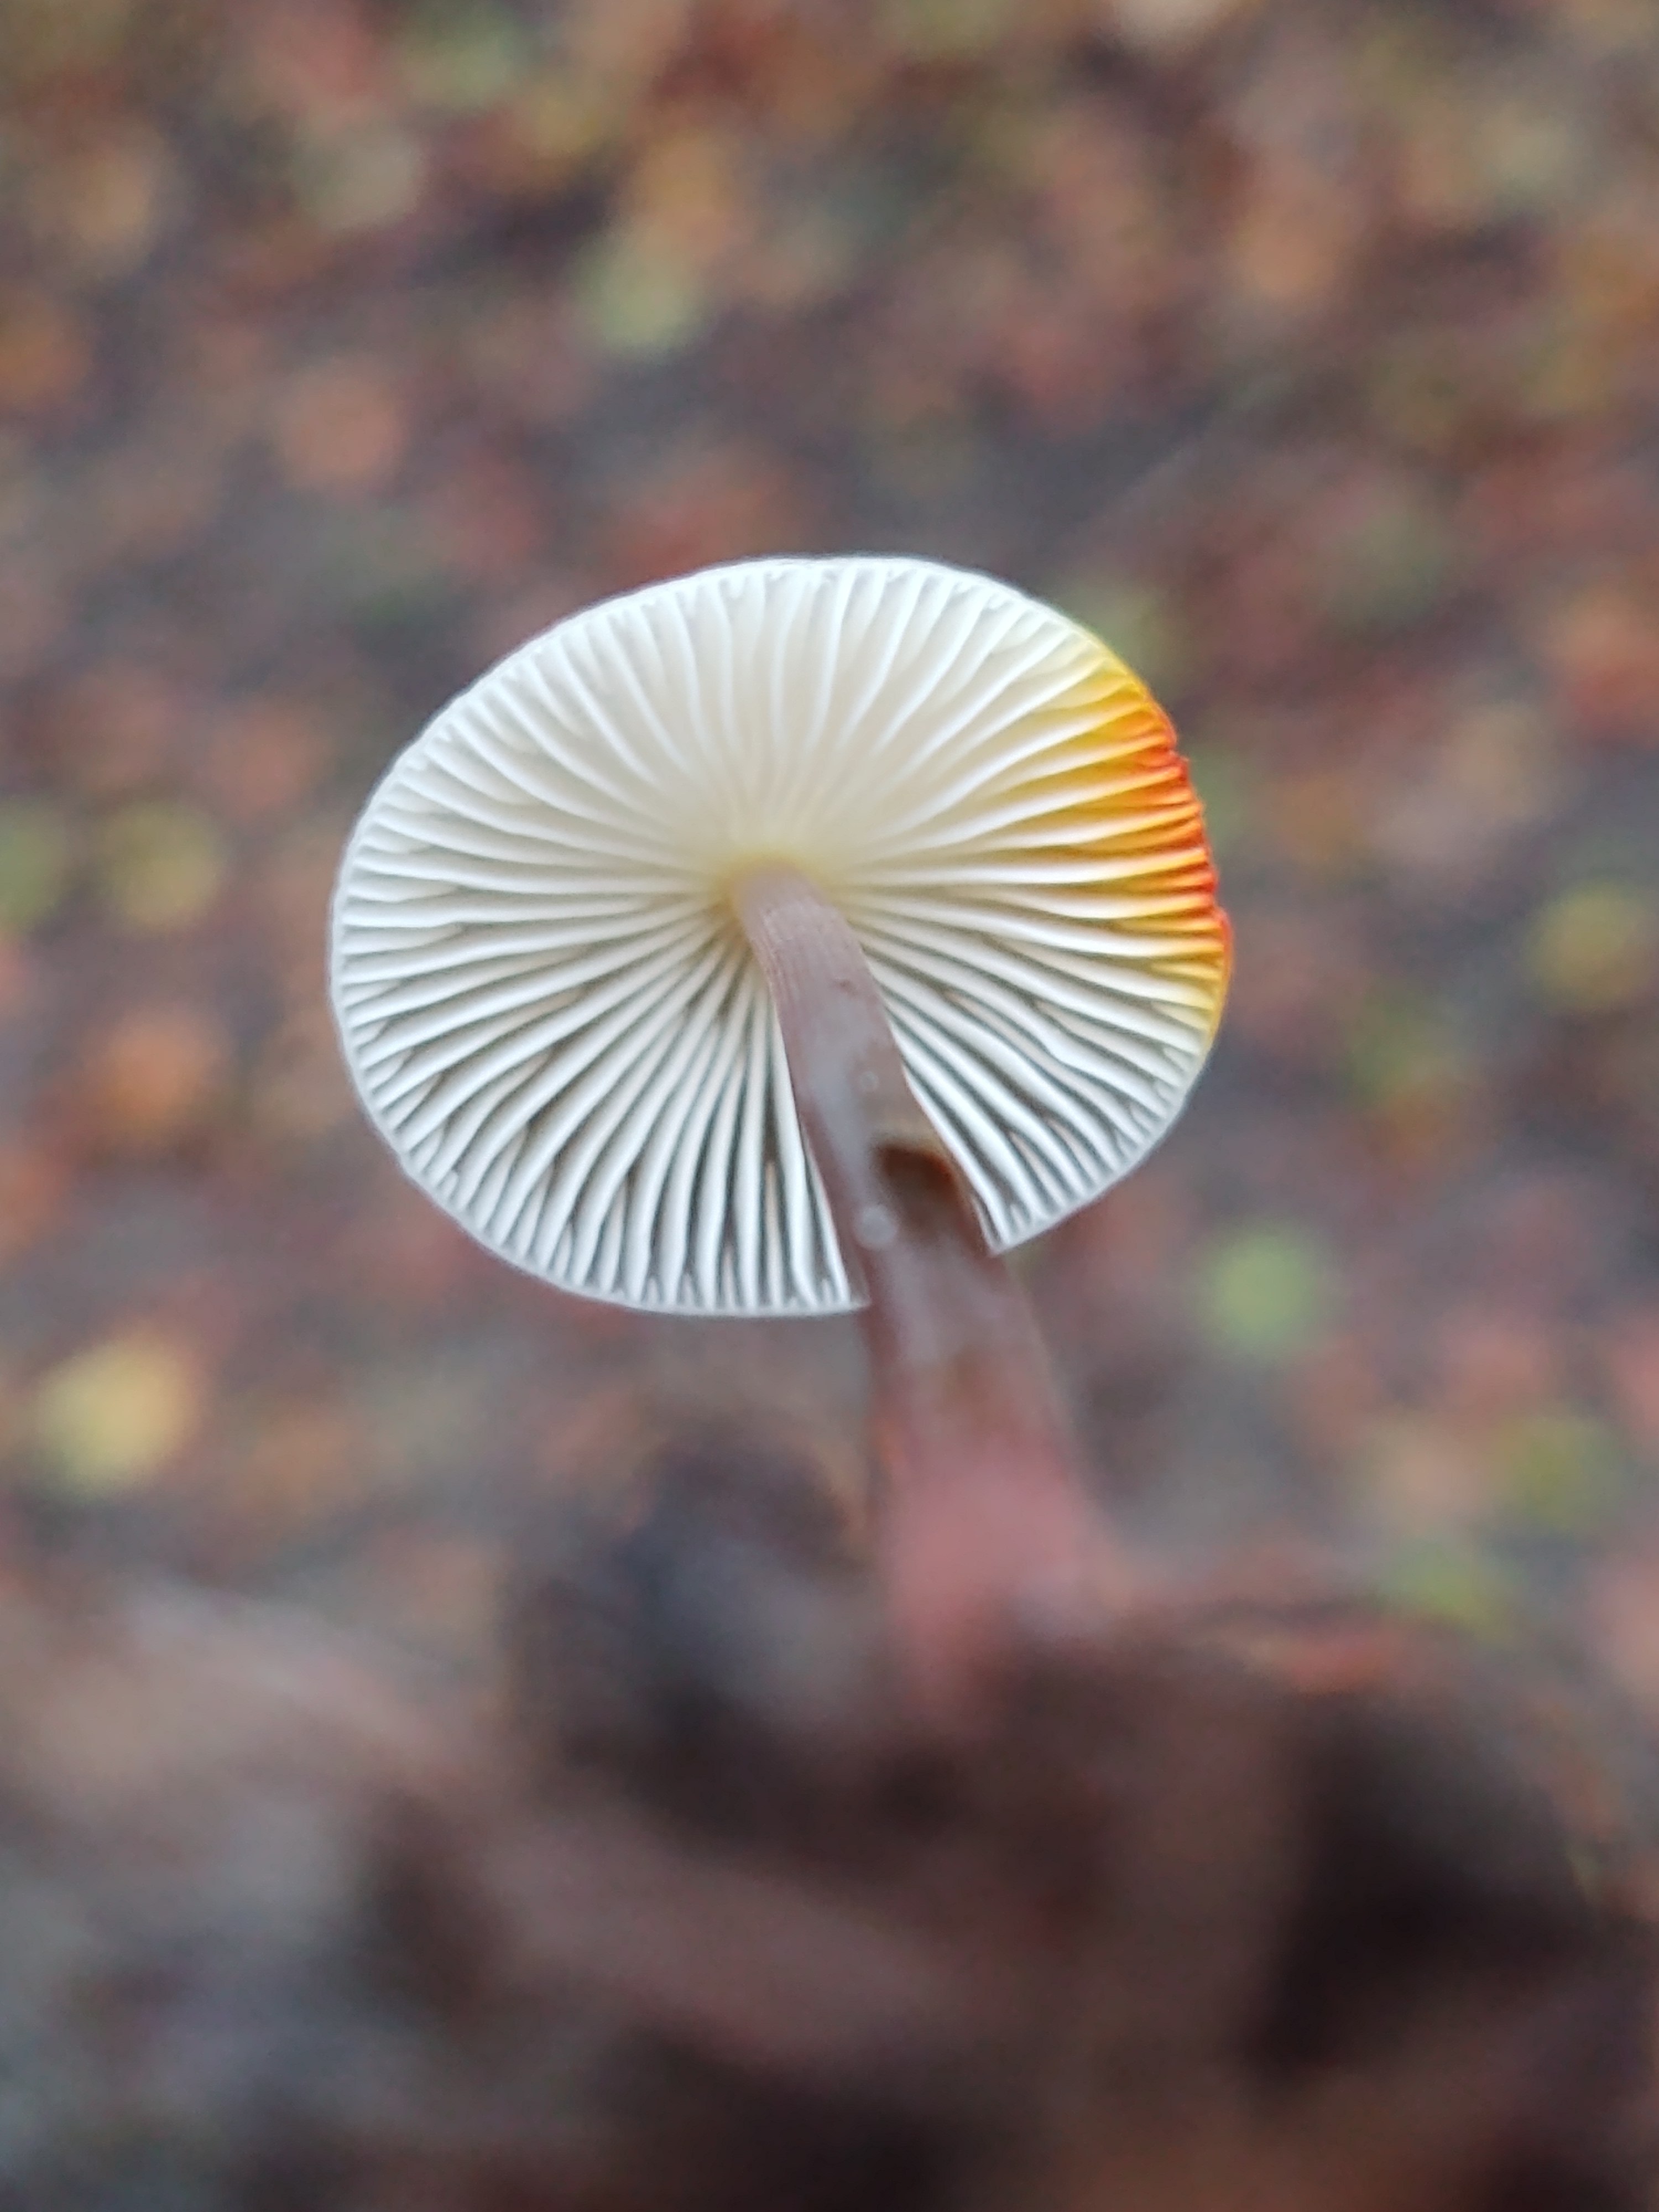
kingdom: Fungi
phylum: Basidiomycota
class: Agaricomycetes
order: Agaricales
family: Mycenaceae
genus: Mycena
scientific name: Mycena crocata
